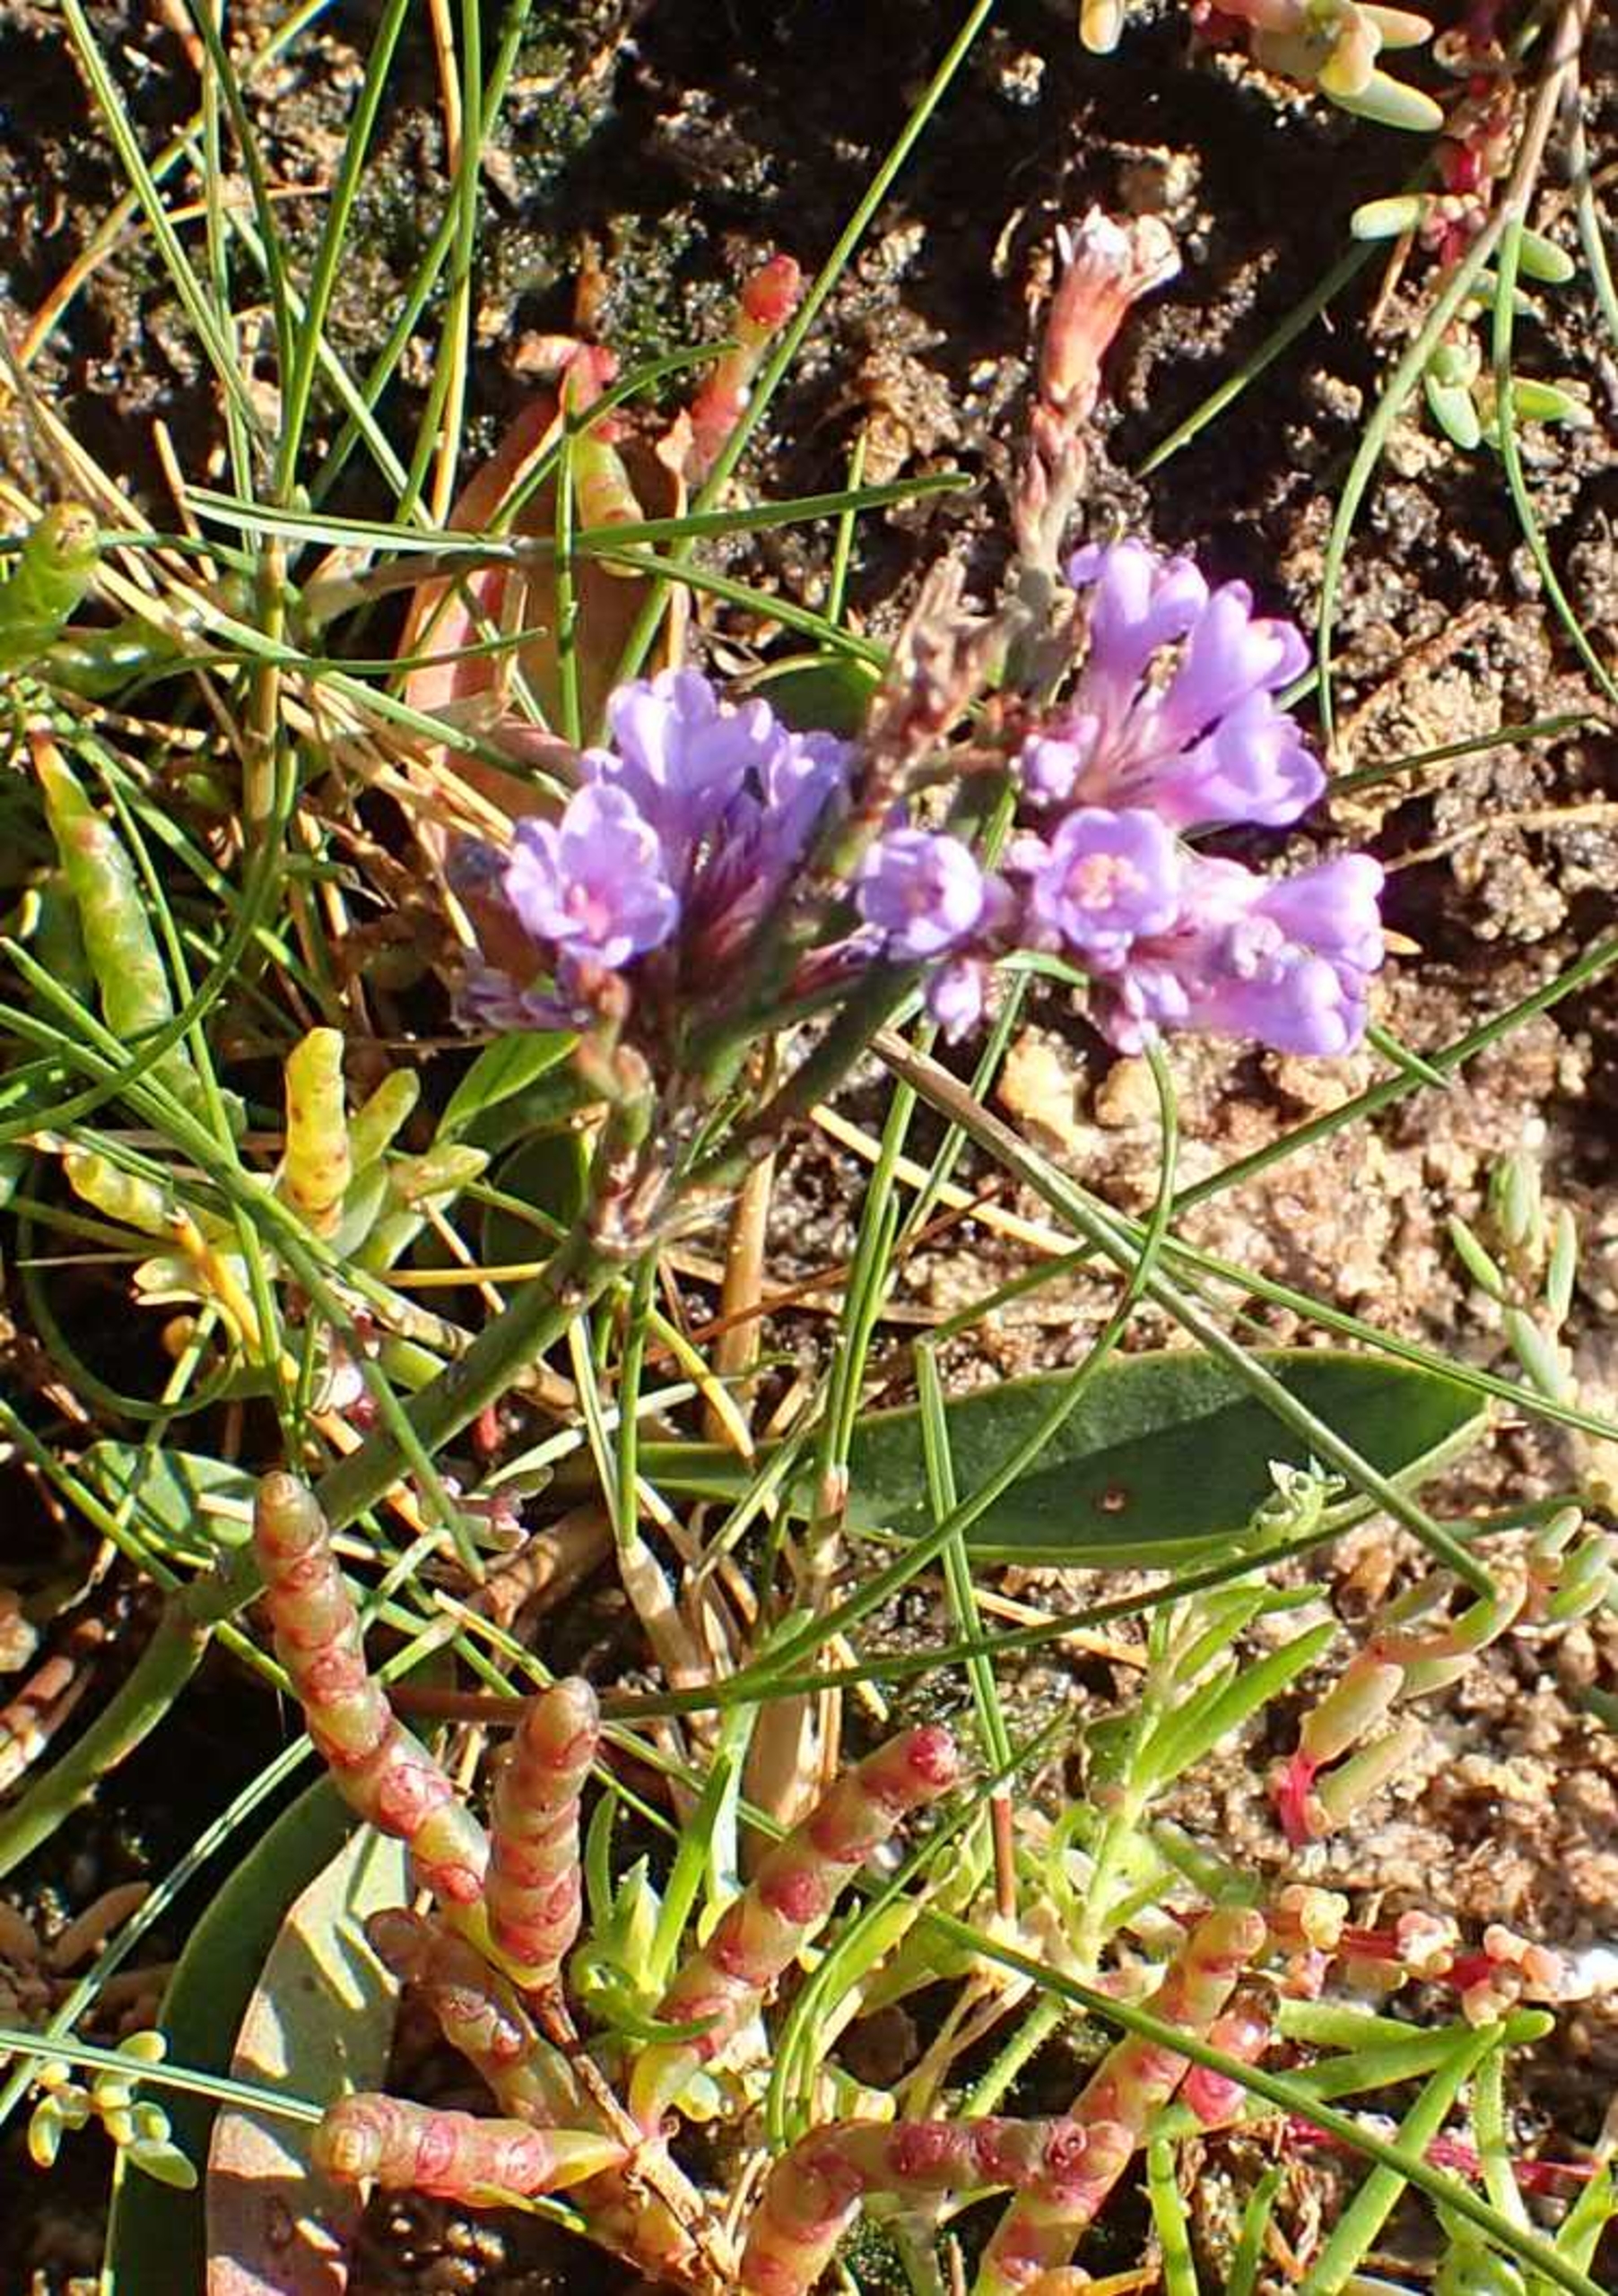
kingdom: Plantae
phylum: Tracheophyta
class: Magnoliopsida
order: Caryophyllales
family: Plumbaginaceae
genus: Limonium
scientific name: Limonium vulgare
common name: Tætblomstret hindebæger
